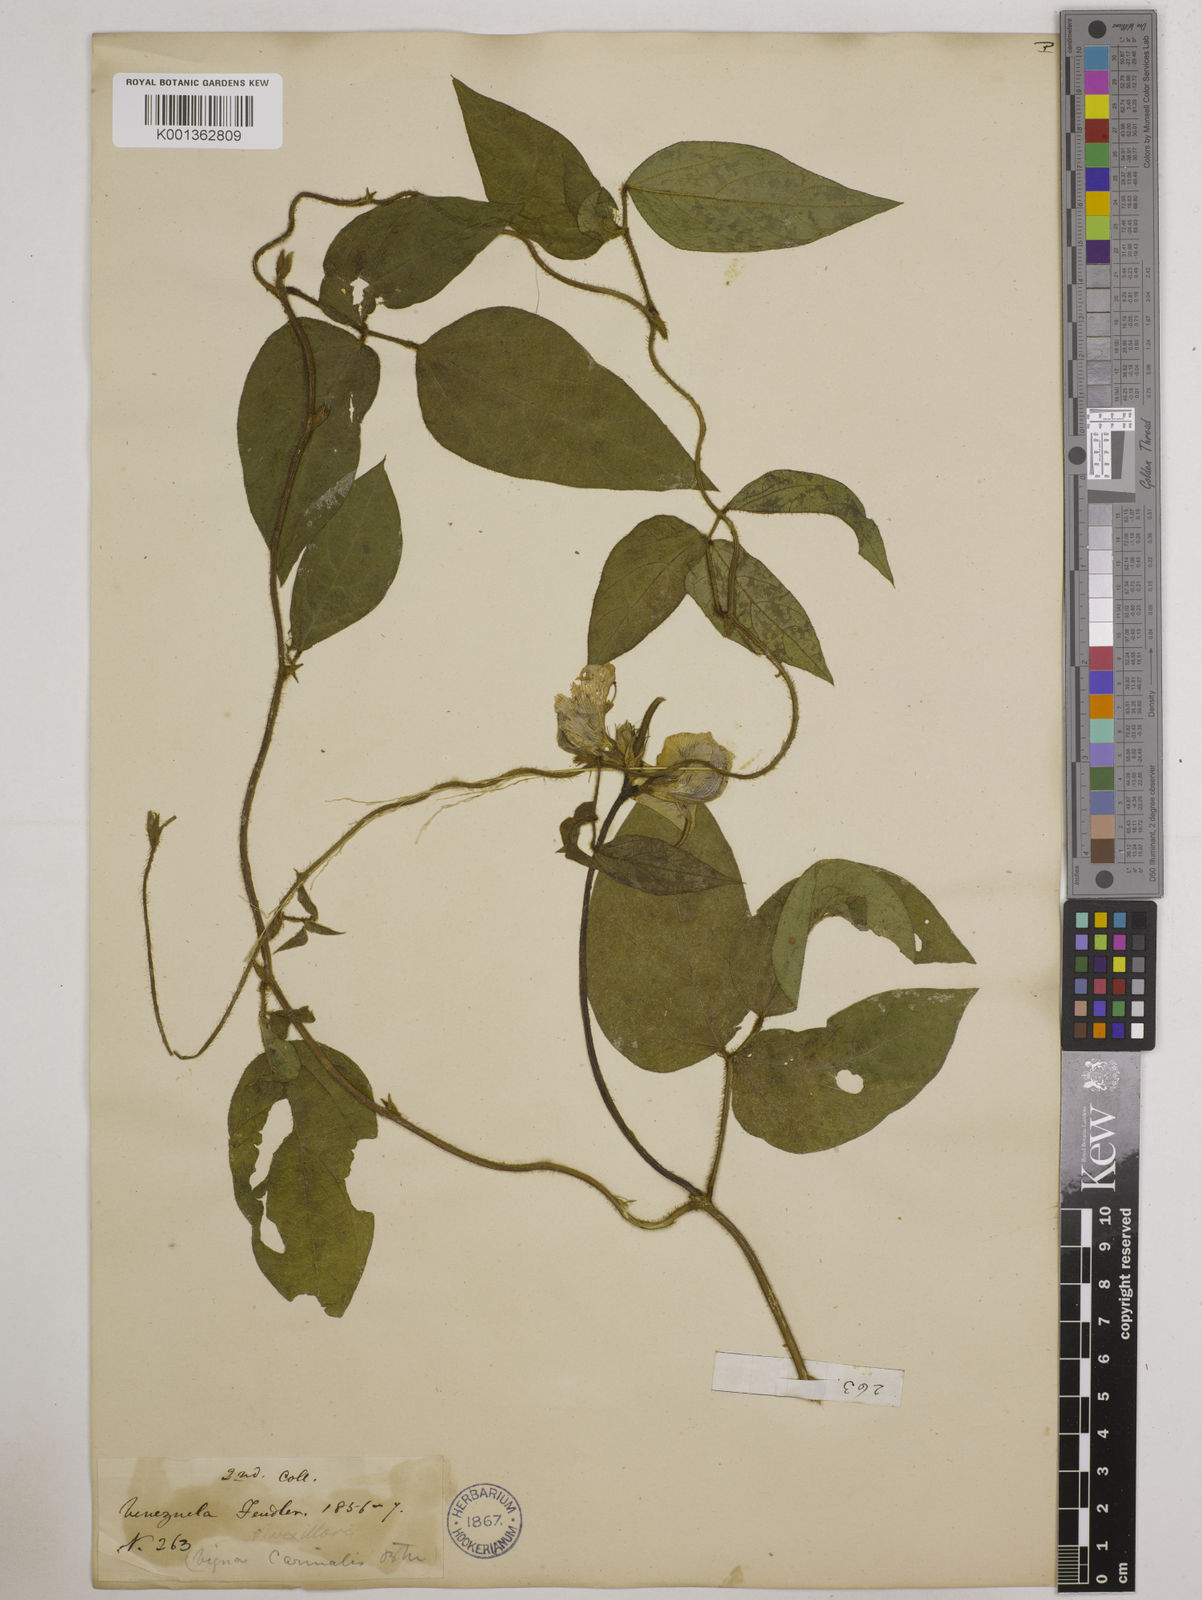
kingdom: Plantae
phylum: Tracheophyta
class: Magnoliopsida
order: Fabales
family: Fabaceae
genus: Vigna
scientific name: Vigna vexillata
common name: Zombi pea
